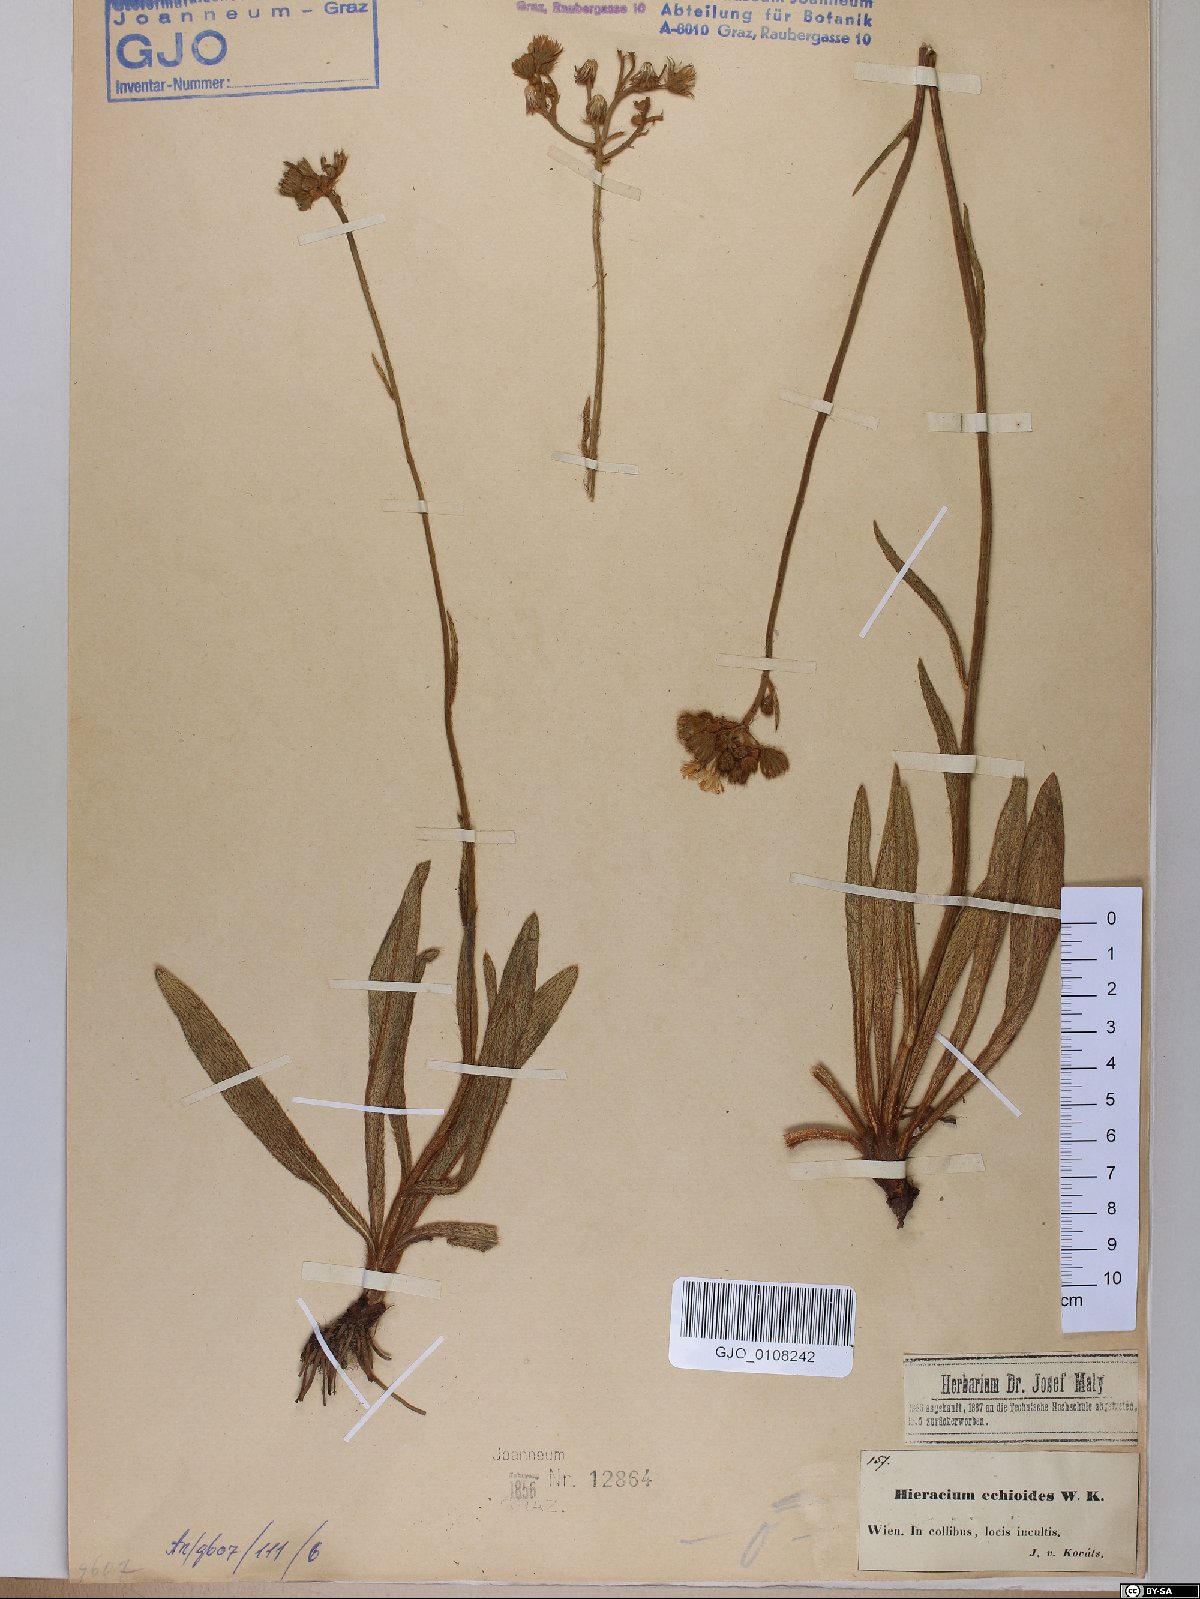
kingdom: Plantae
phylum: Tracheophyta
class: Magnoliopsida
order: Asterales
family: Asteraceae
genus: Pilosella
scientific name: Pilosella echioides
